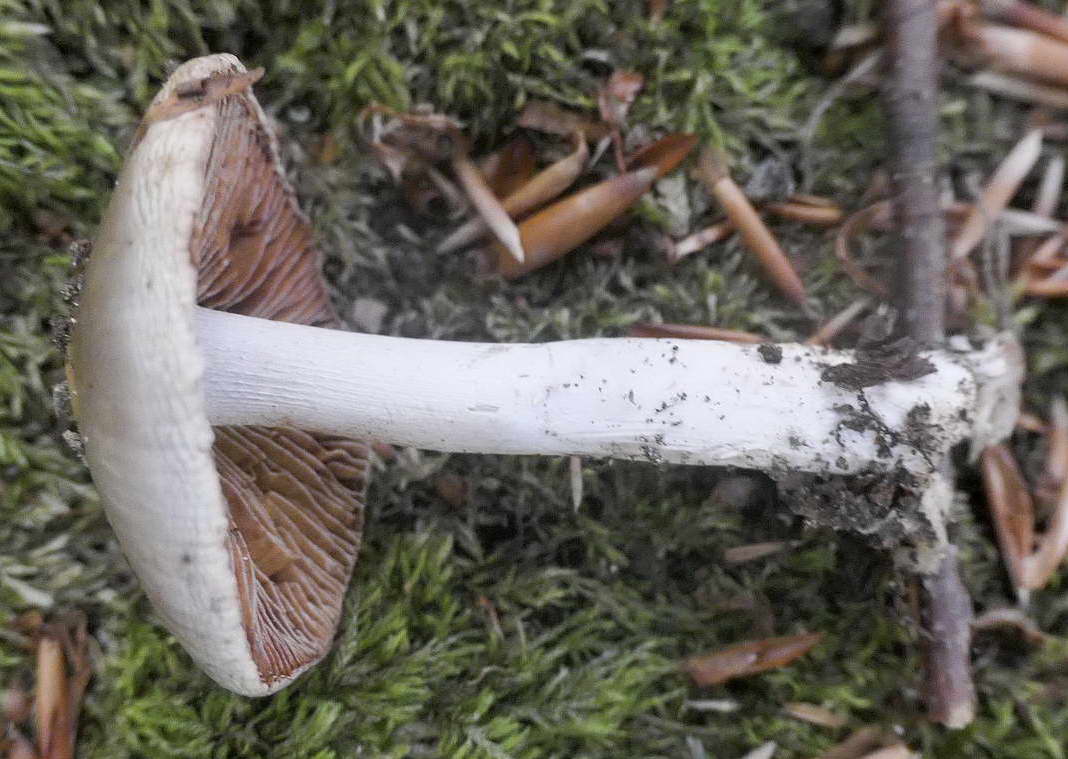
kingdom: Fungi
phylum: Basidiomycota
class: Agaricomycetes
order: Agaricales
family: Cortinariaceae
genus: Cortinarius
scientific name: Cortinarius
